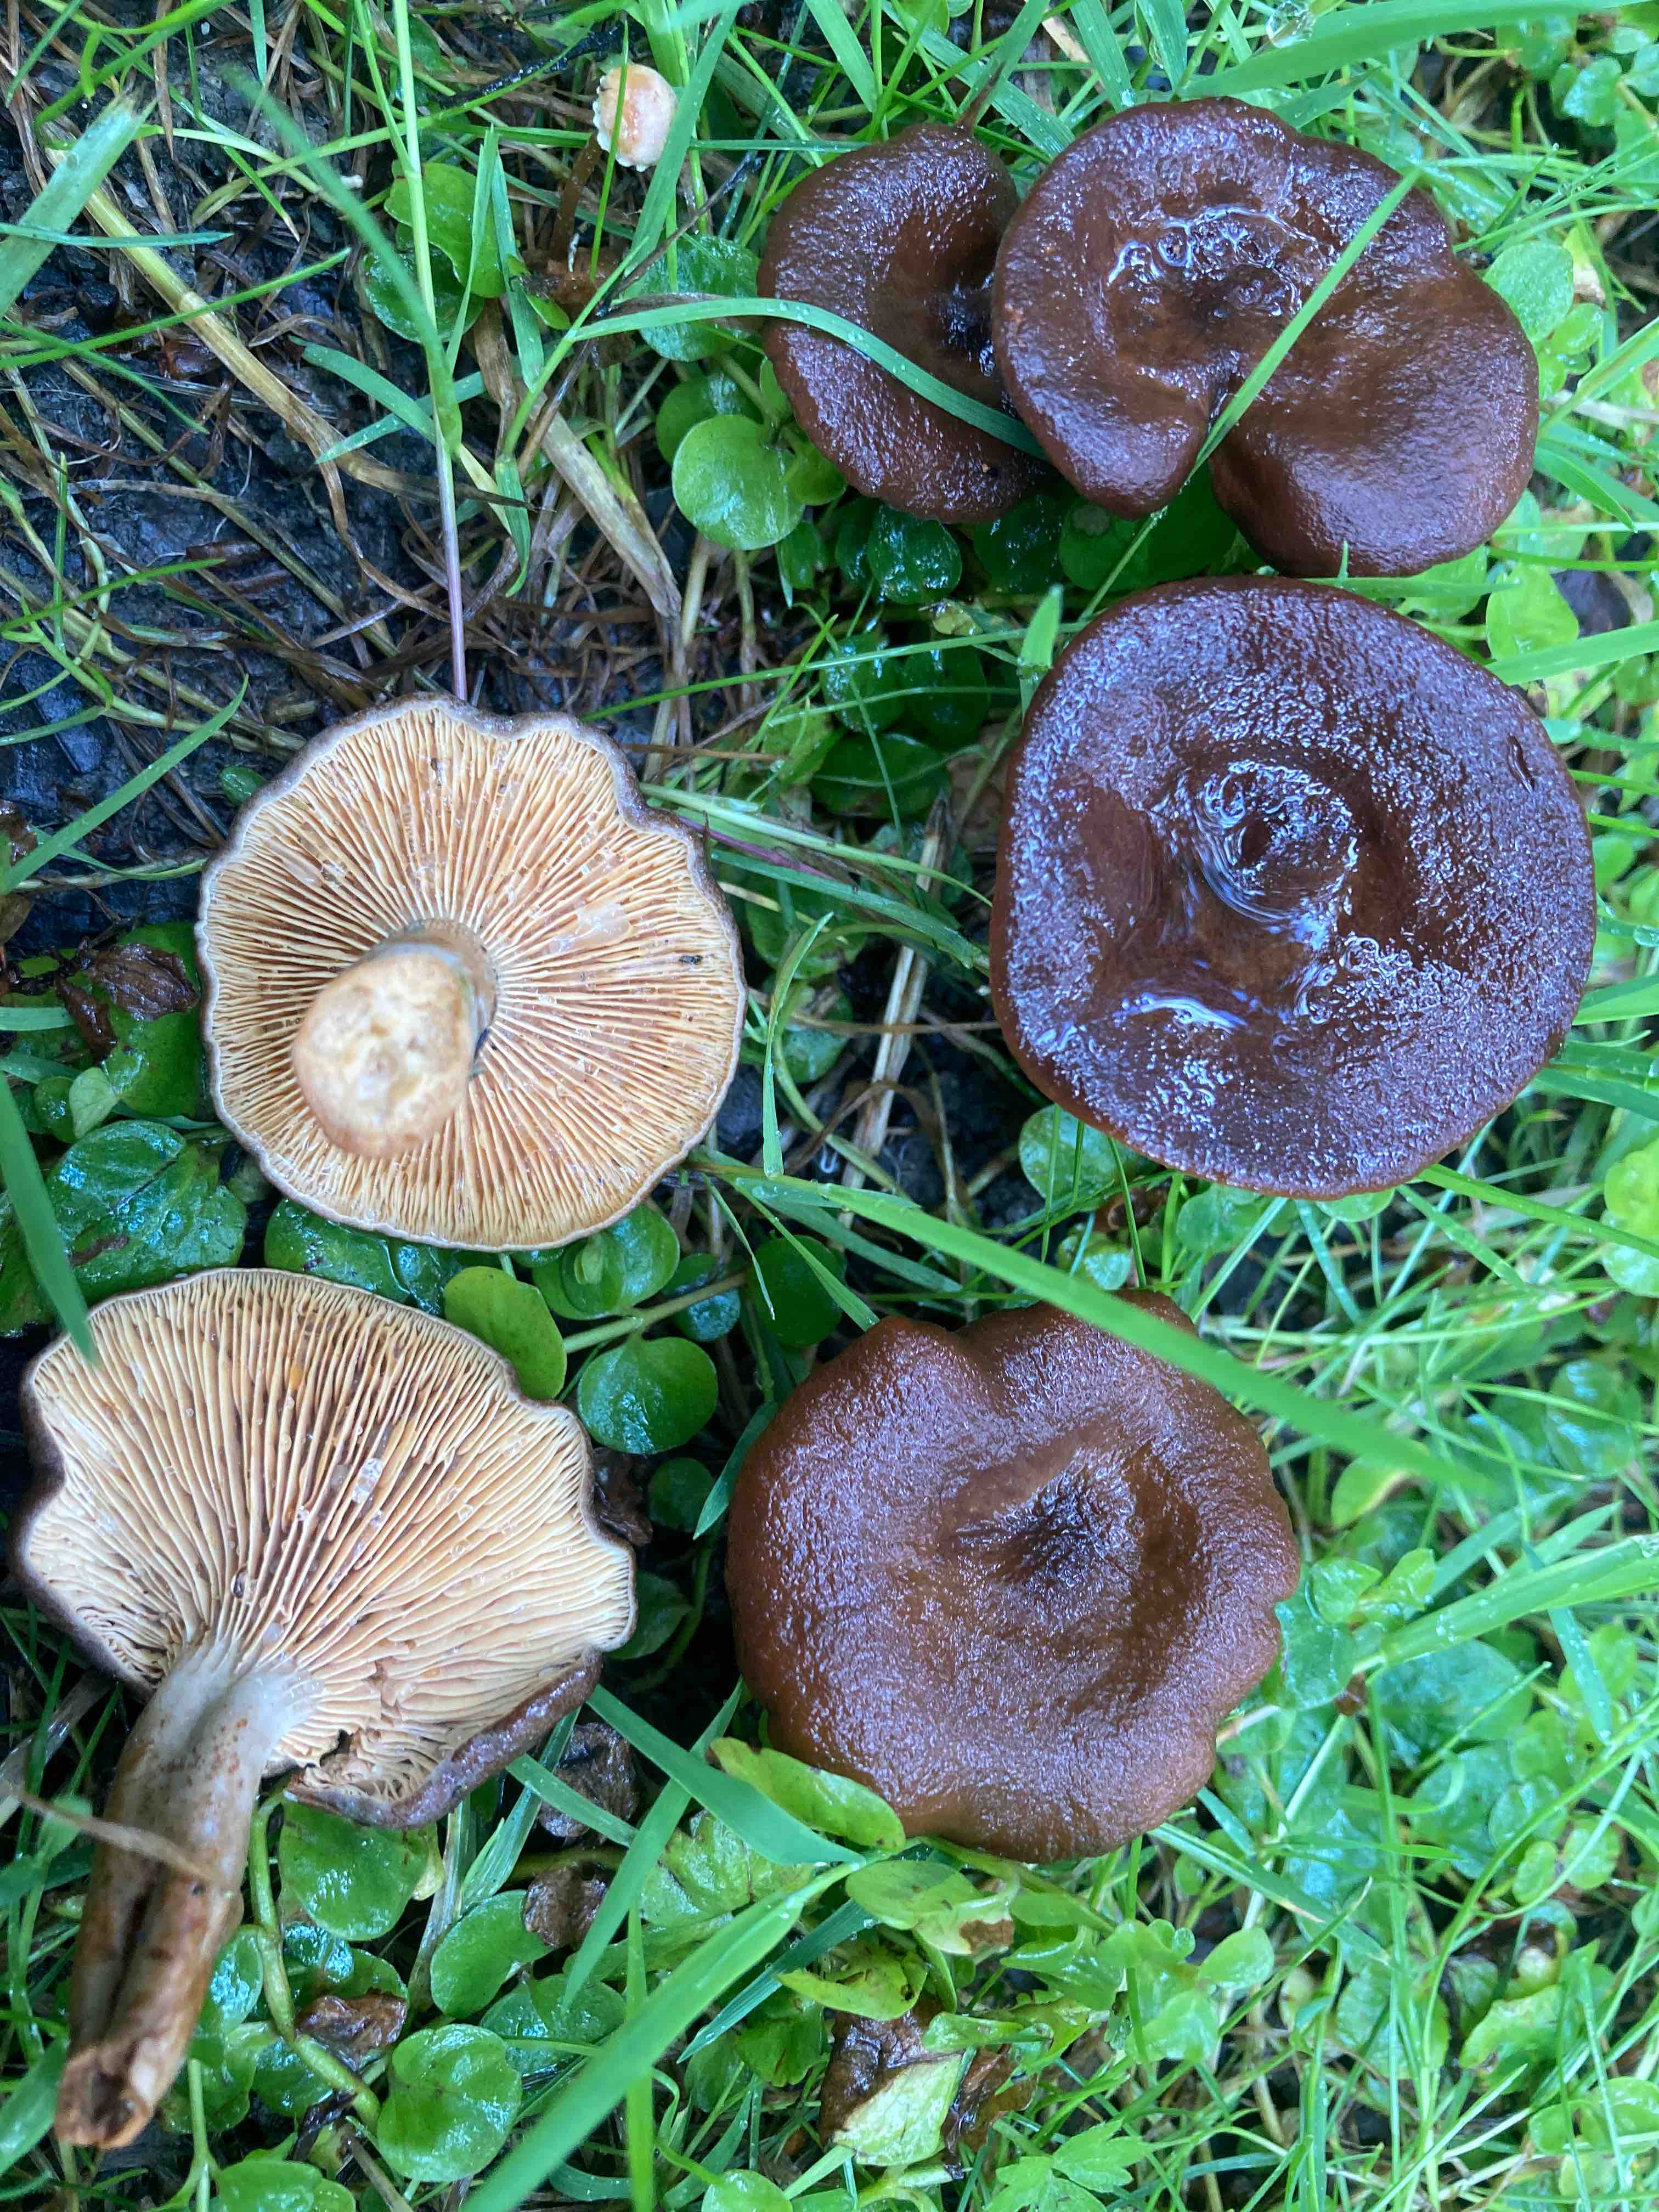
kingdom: Fungi
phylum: Basidiomycota
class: Agaricomycetes
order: Russulales
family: Russulaceae
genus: Lactarius
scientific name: Lactarius serifluus
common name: tæge-mælkehat
